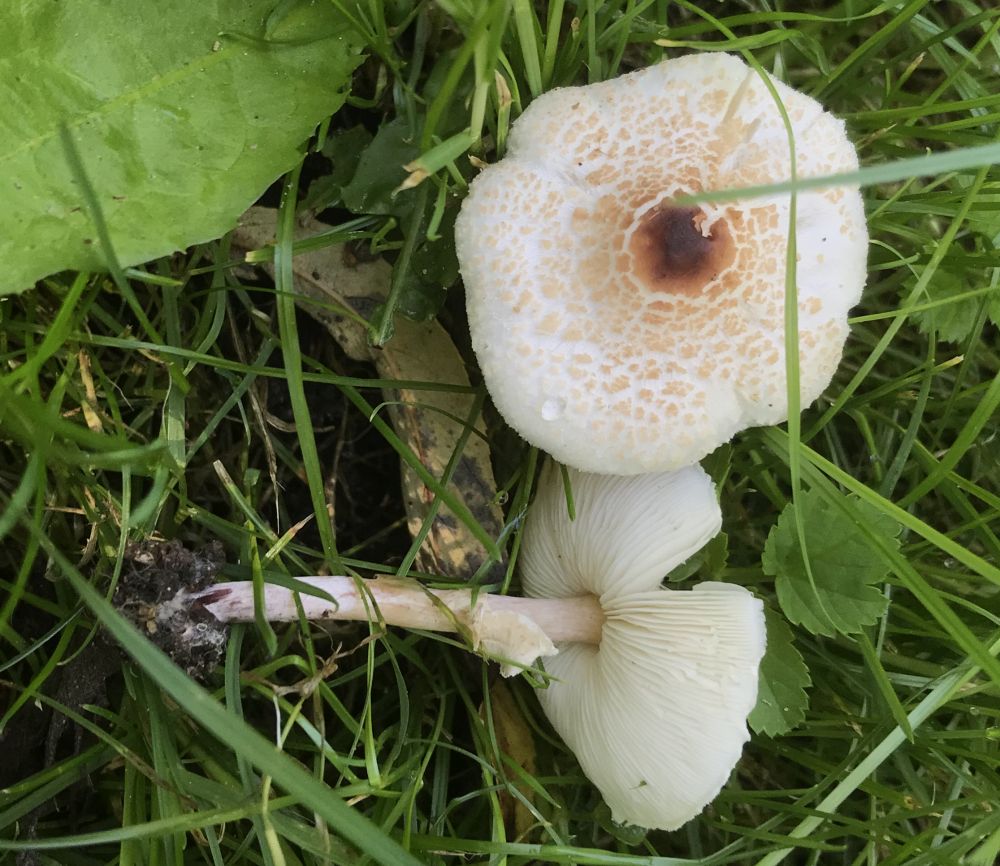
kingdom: Fungi
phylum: Basidiomycota
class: Agaricomycetes
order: Agaricales
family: Agaricaceae
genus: Lepiota
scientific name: Lepiota cristata
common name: stinkende parasolhat
